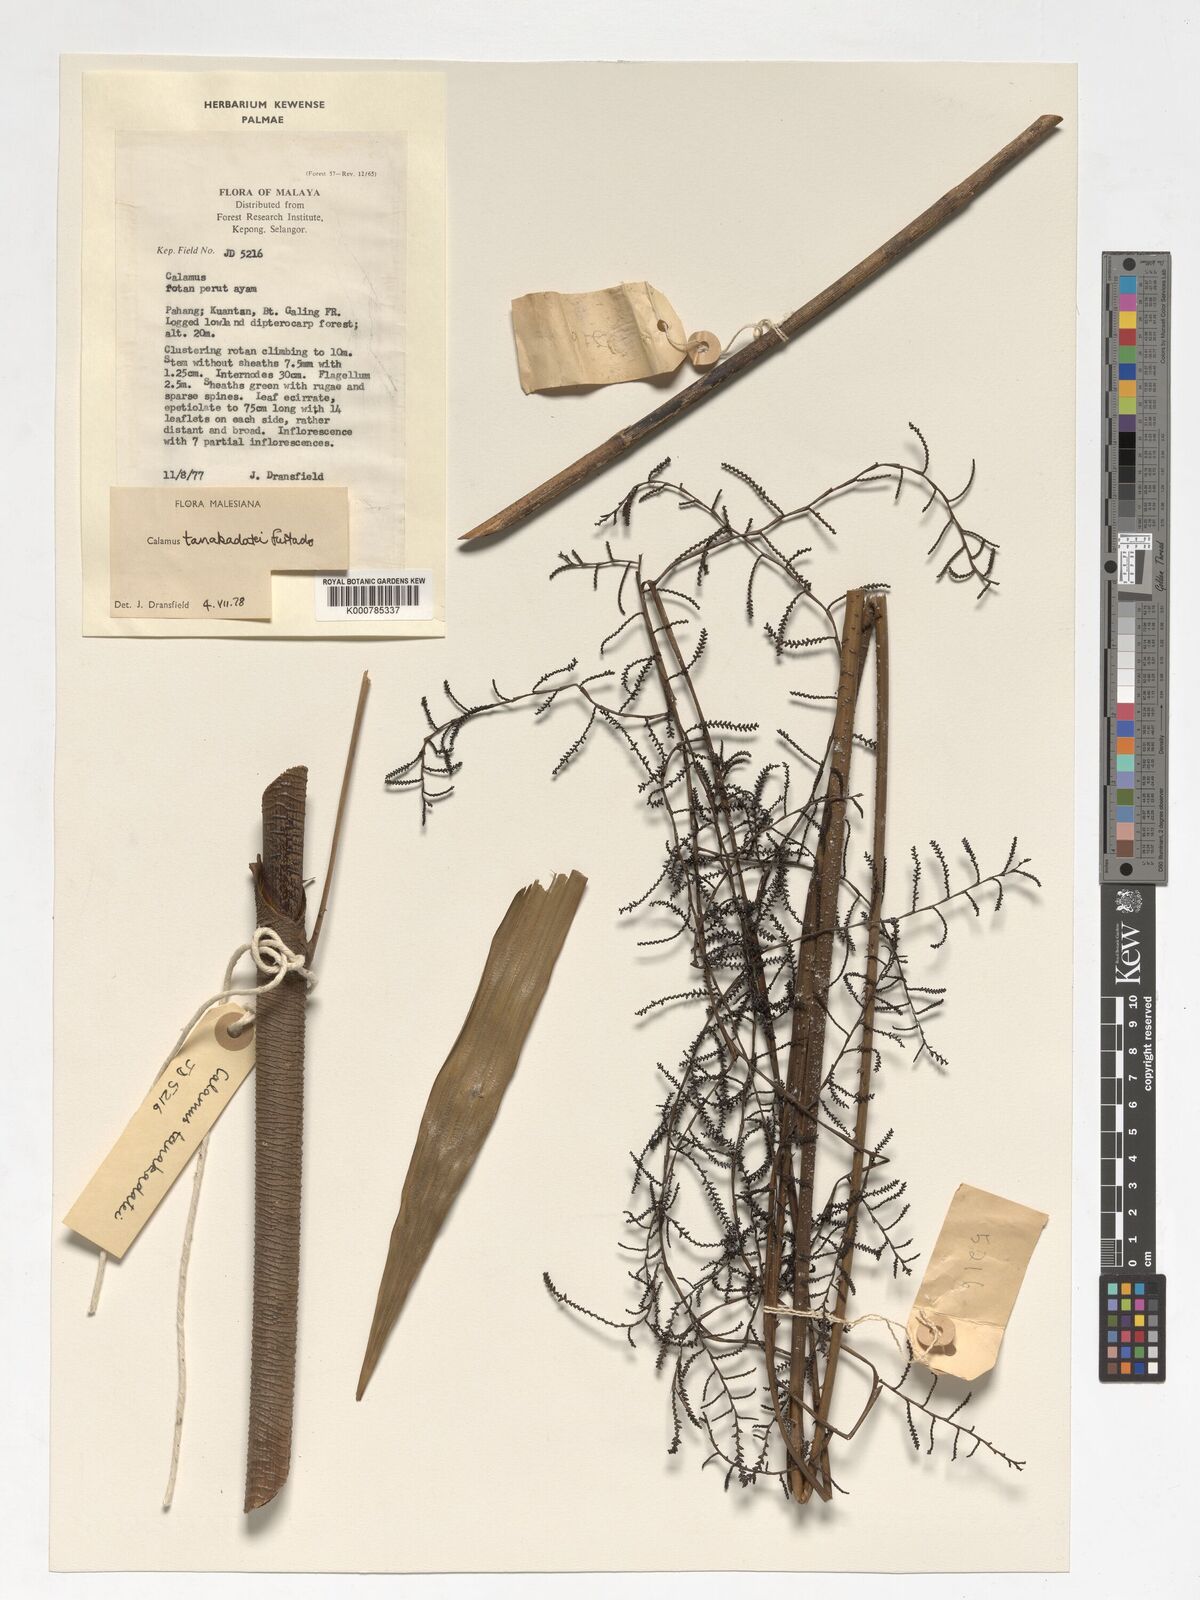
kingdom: Plantae
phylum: Tracheophyta
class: Liliopsida
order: Arecales
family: Arecaceae
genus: Calamus
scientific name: Calamus ruvidus
